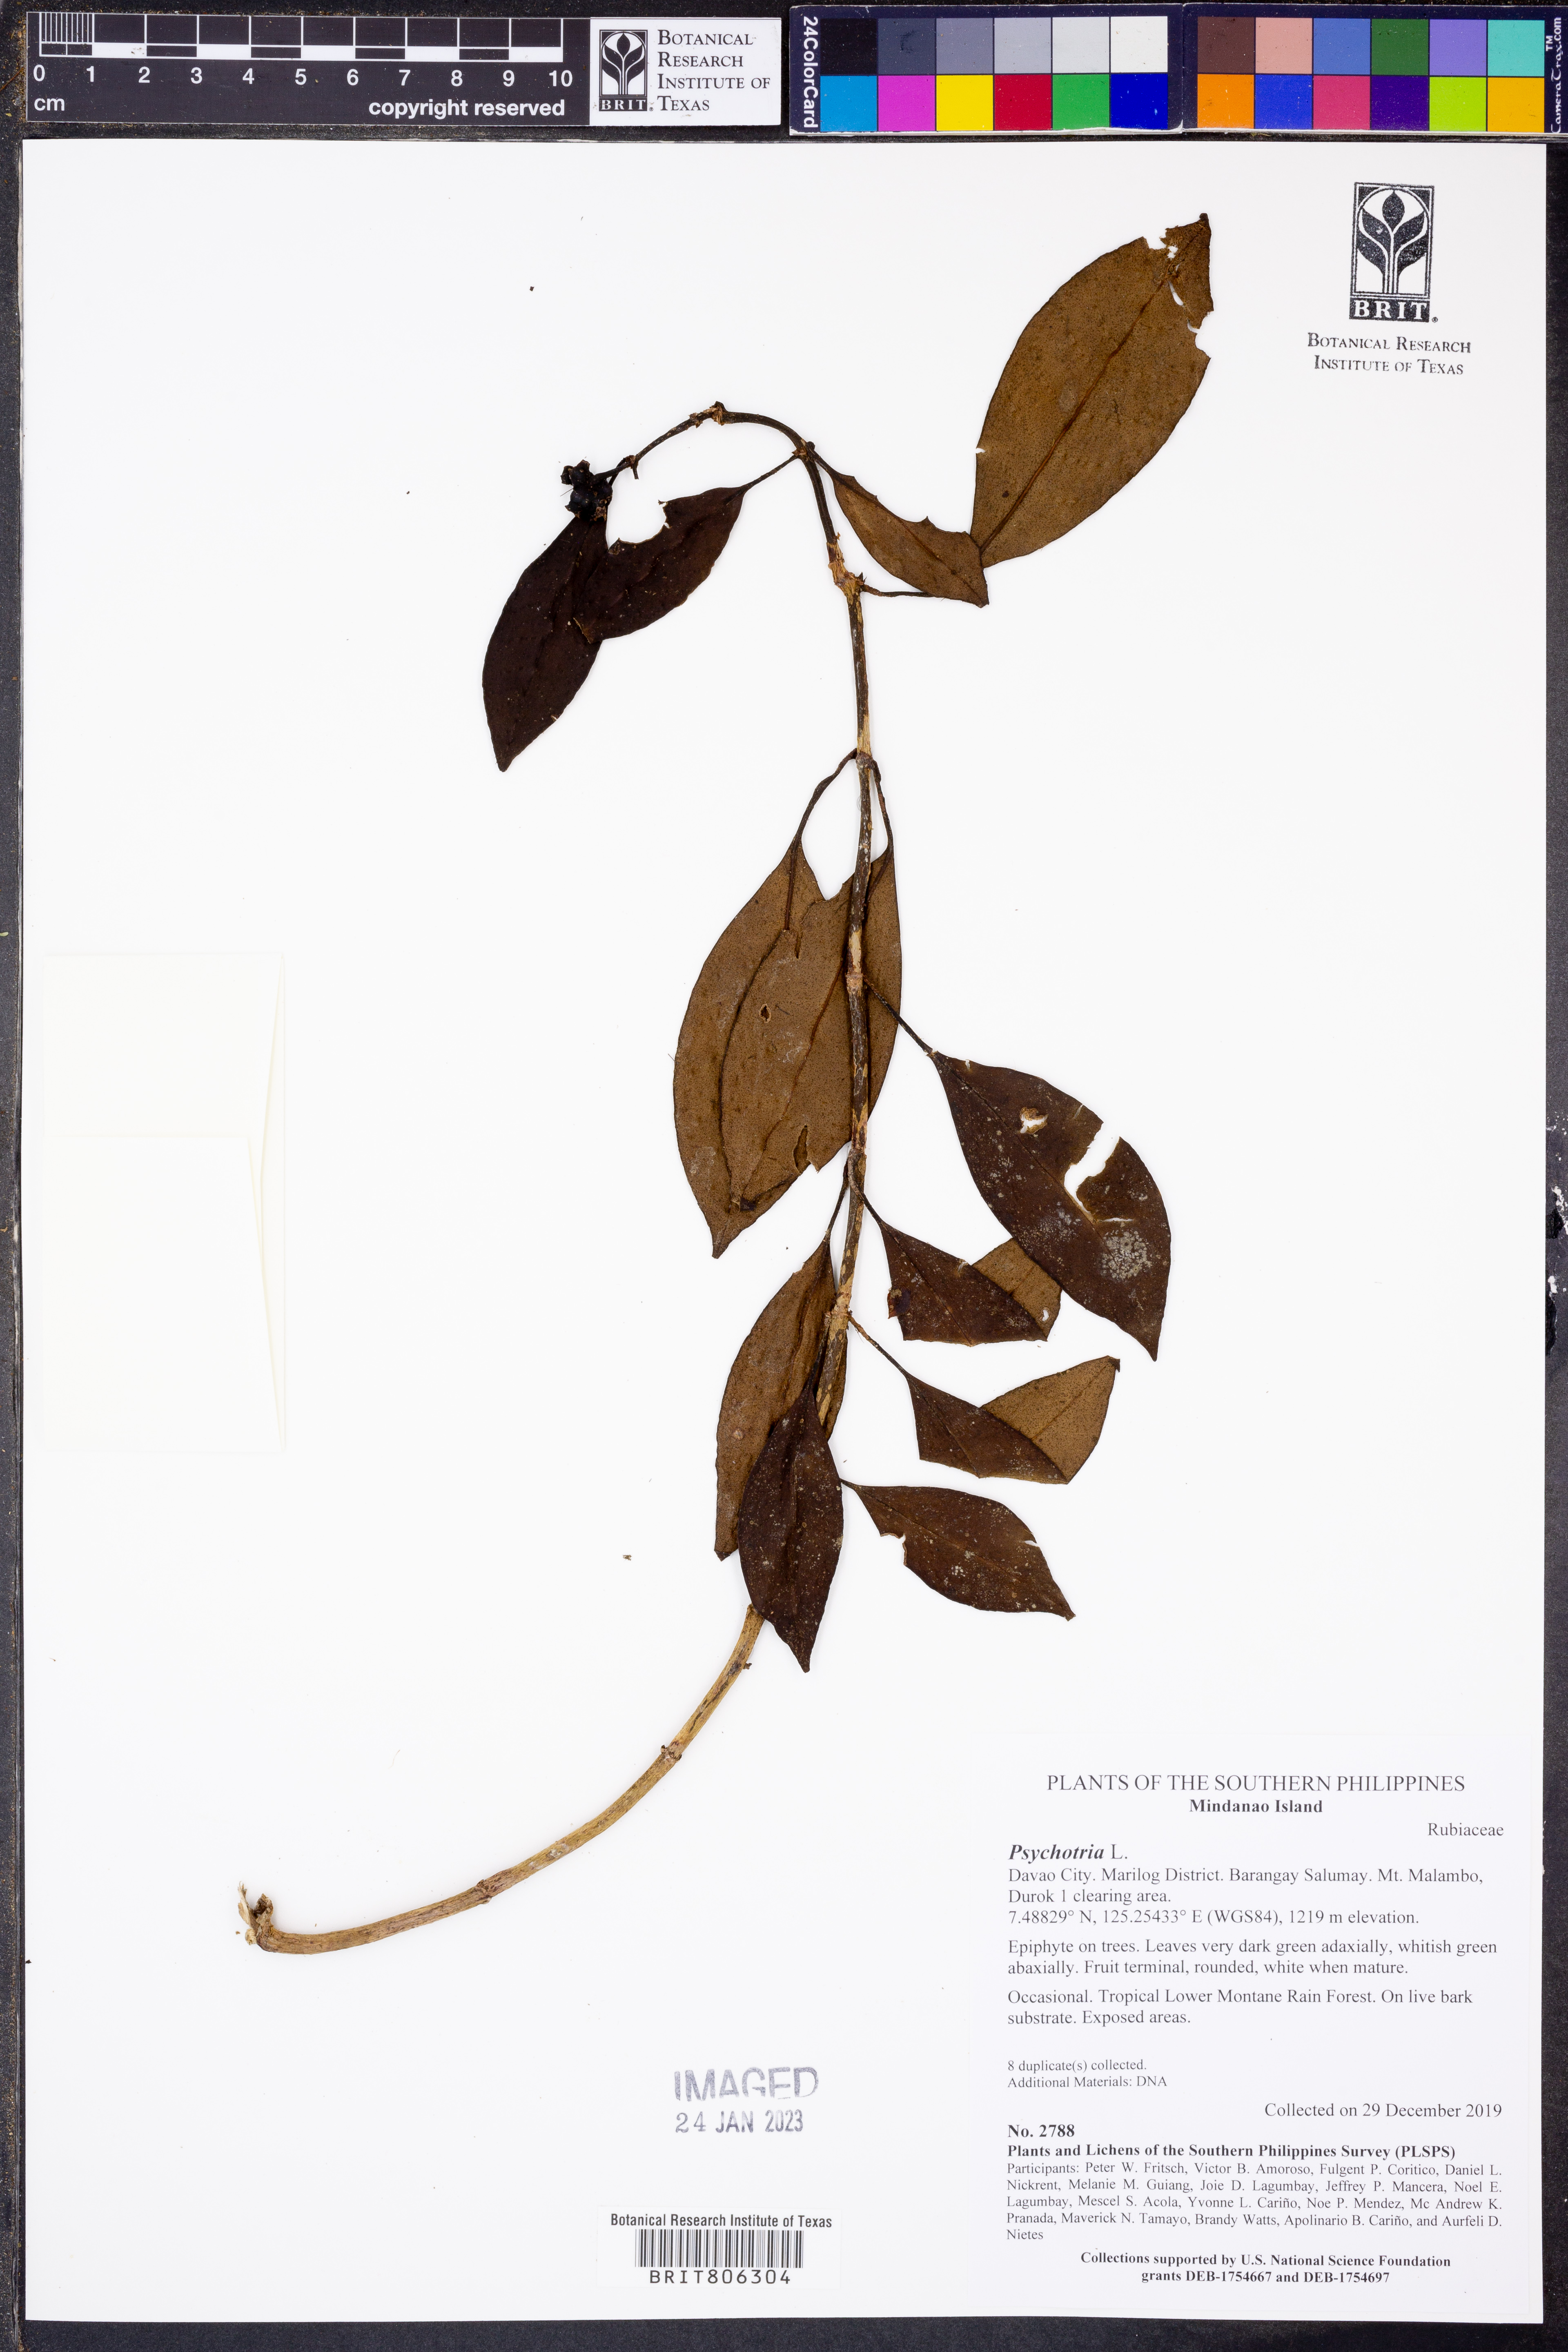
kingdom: Plantae
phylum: Tracheophyta
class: Magnoliopsida
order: Gentianales
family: Rubiaceae
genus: Psychotria
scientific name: Psychotria
